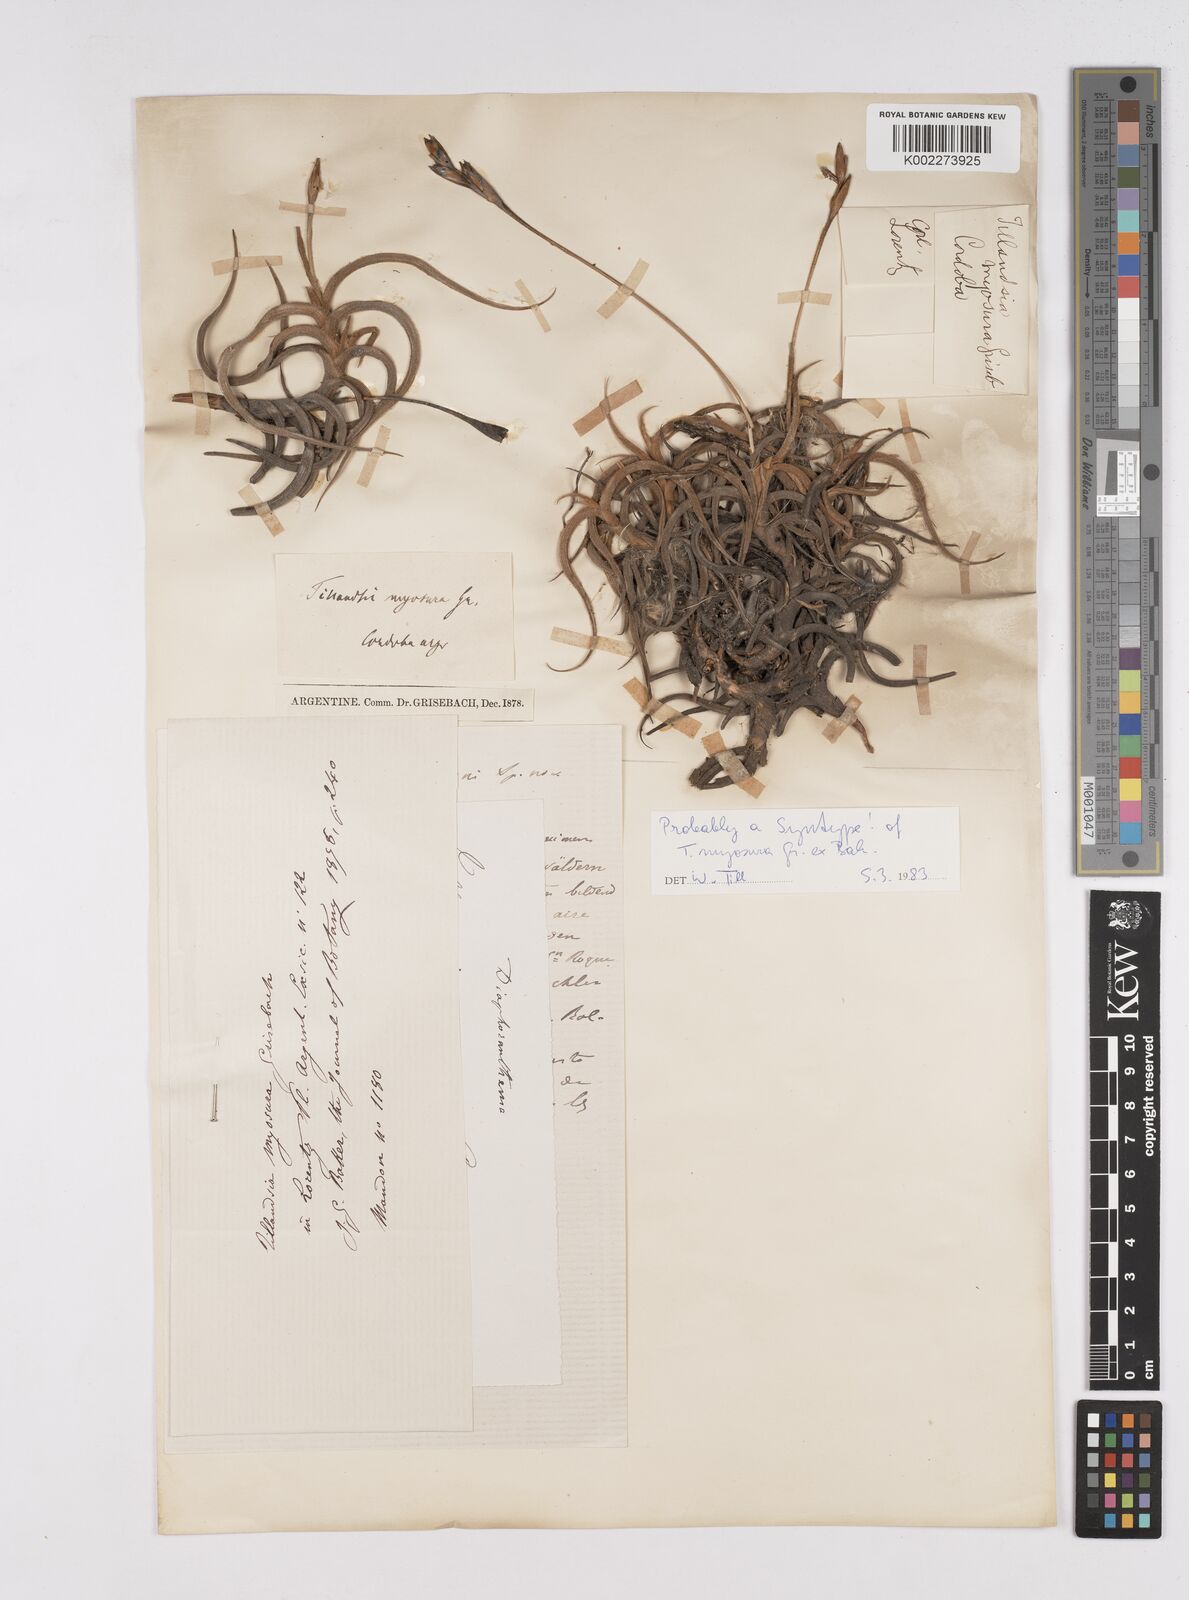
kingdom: Plantae
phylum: Tracheophyta
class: Liliopsida
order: Poales
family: Bromeliaceae
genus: Tillandsia
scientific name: Tillandsia myosura
